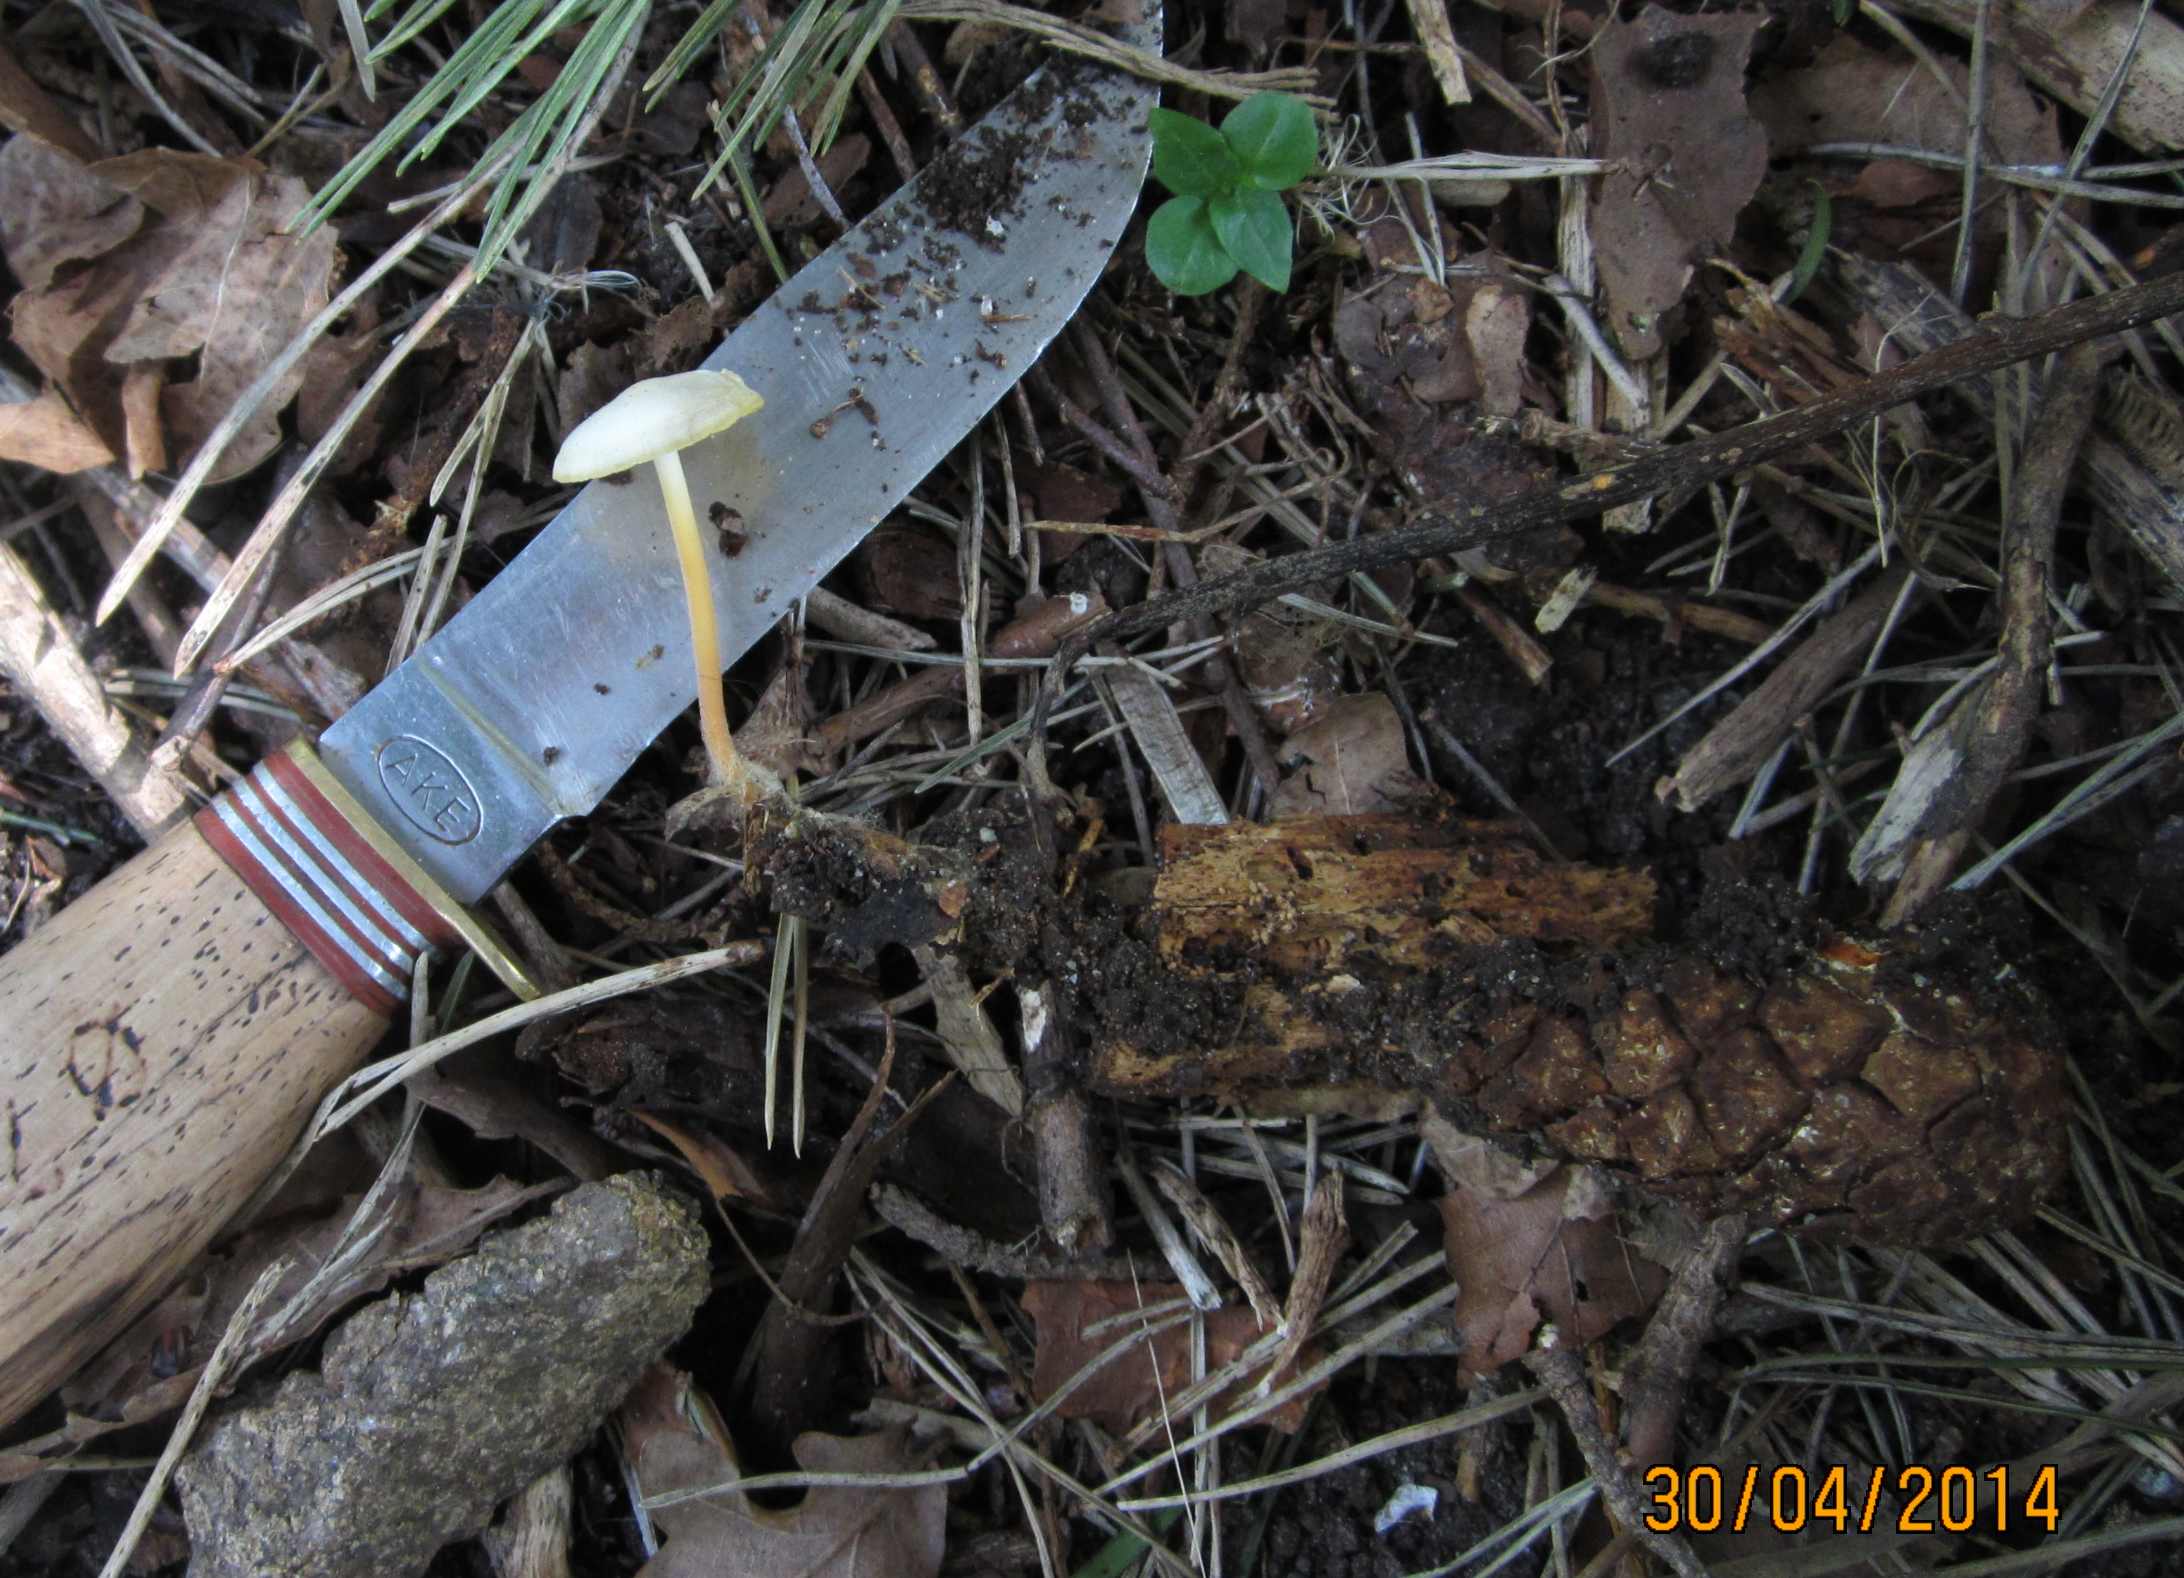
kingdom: Fungi
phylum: Basidiomycota
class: Agaricomycetes
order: Agaricales
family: Physalacriaceae
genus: Strobilurus
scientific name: Strobilurus stephanocystis
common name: fyrre-koglehat
